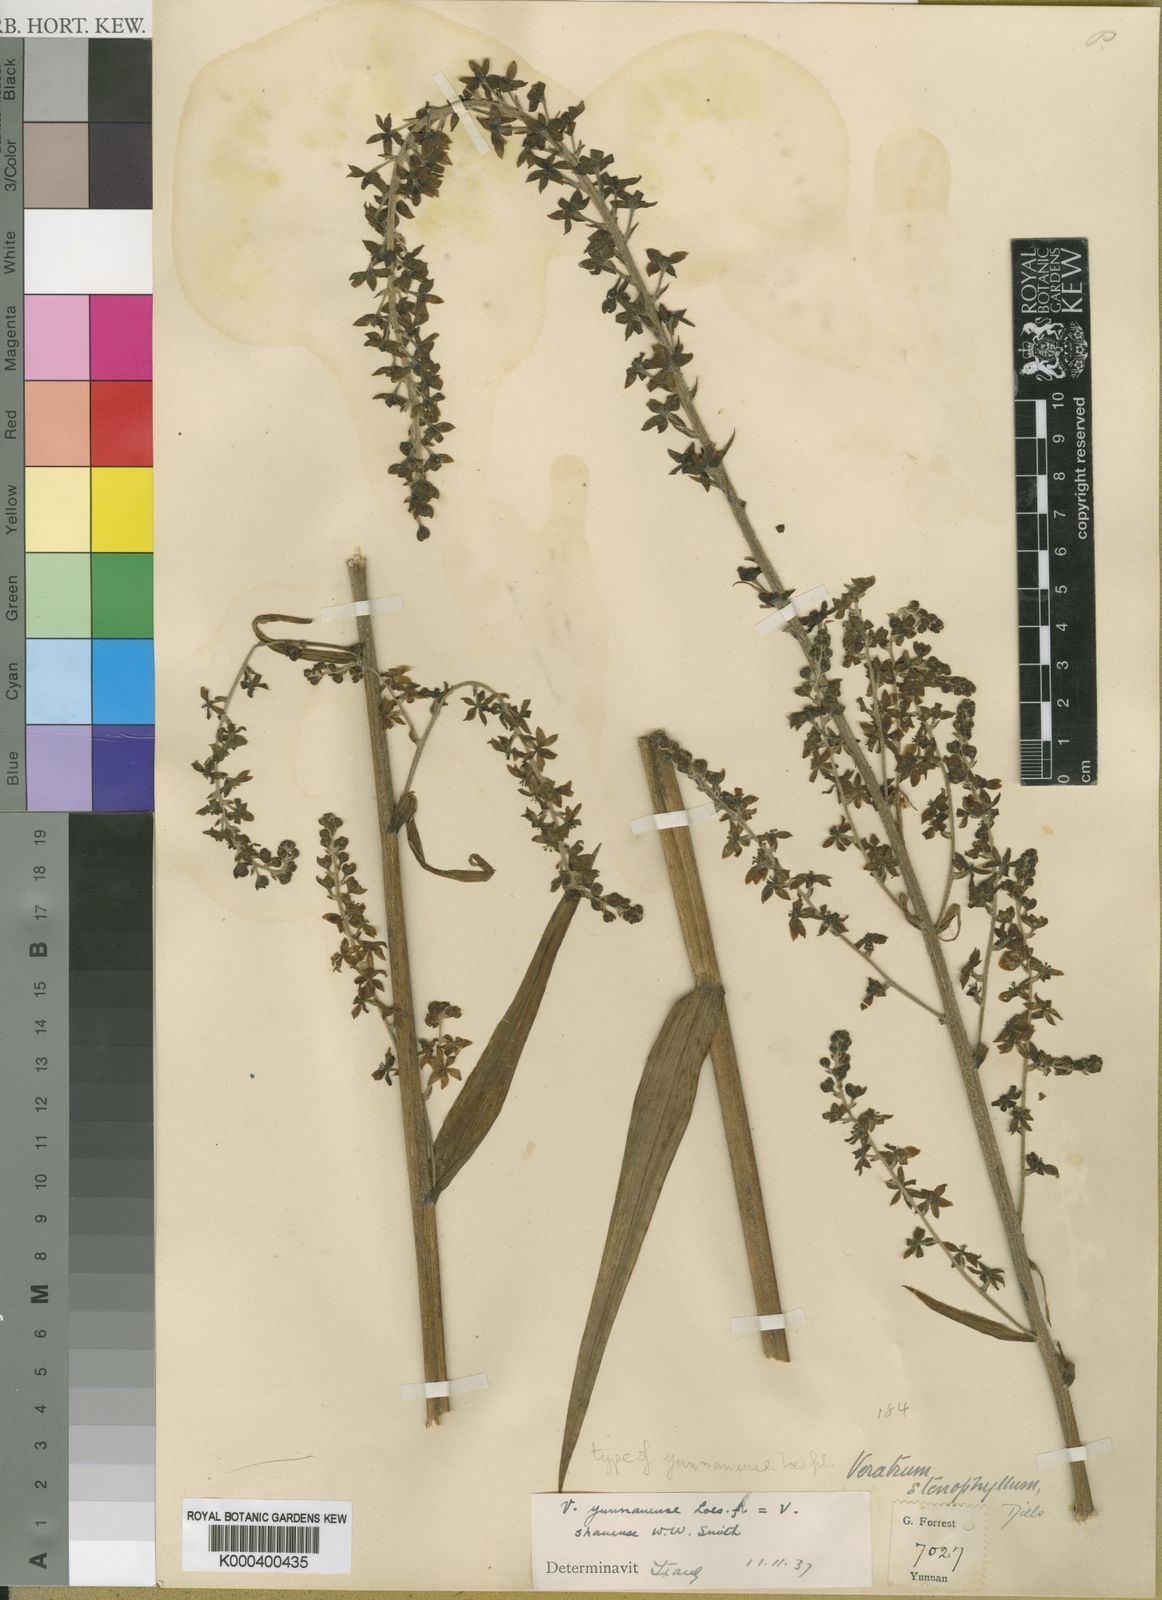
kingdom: Plantae
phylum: Tracheophyta
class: Liliopsida
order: Liliales
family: Melanthiaceae
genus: Veratrum
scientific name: Veratrum shanense
